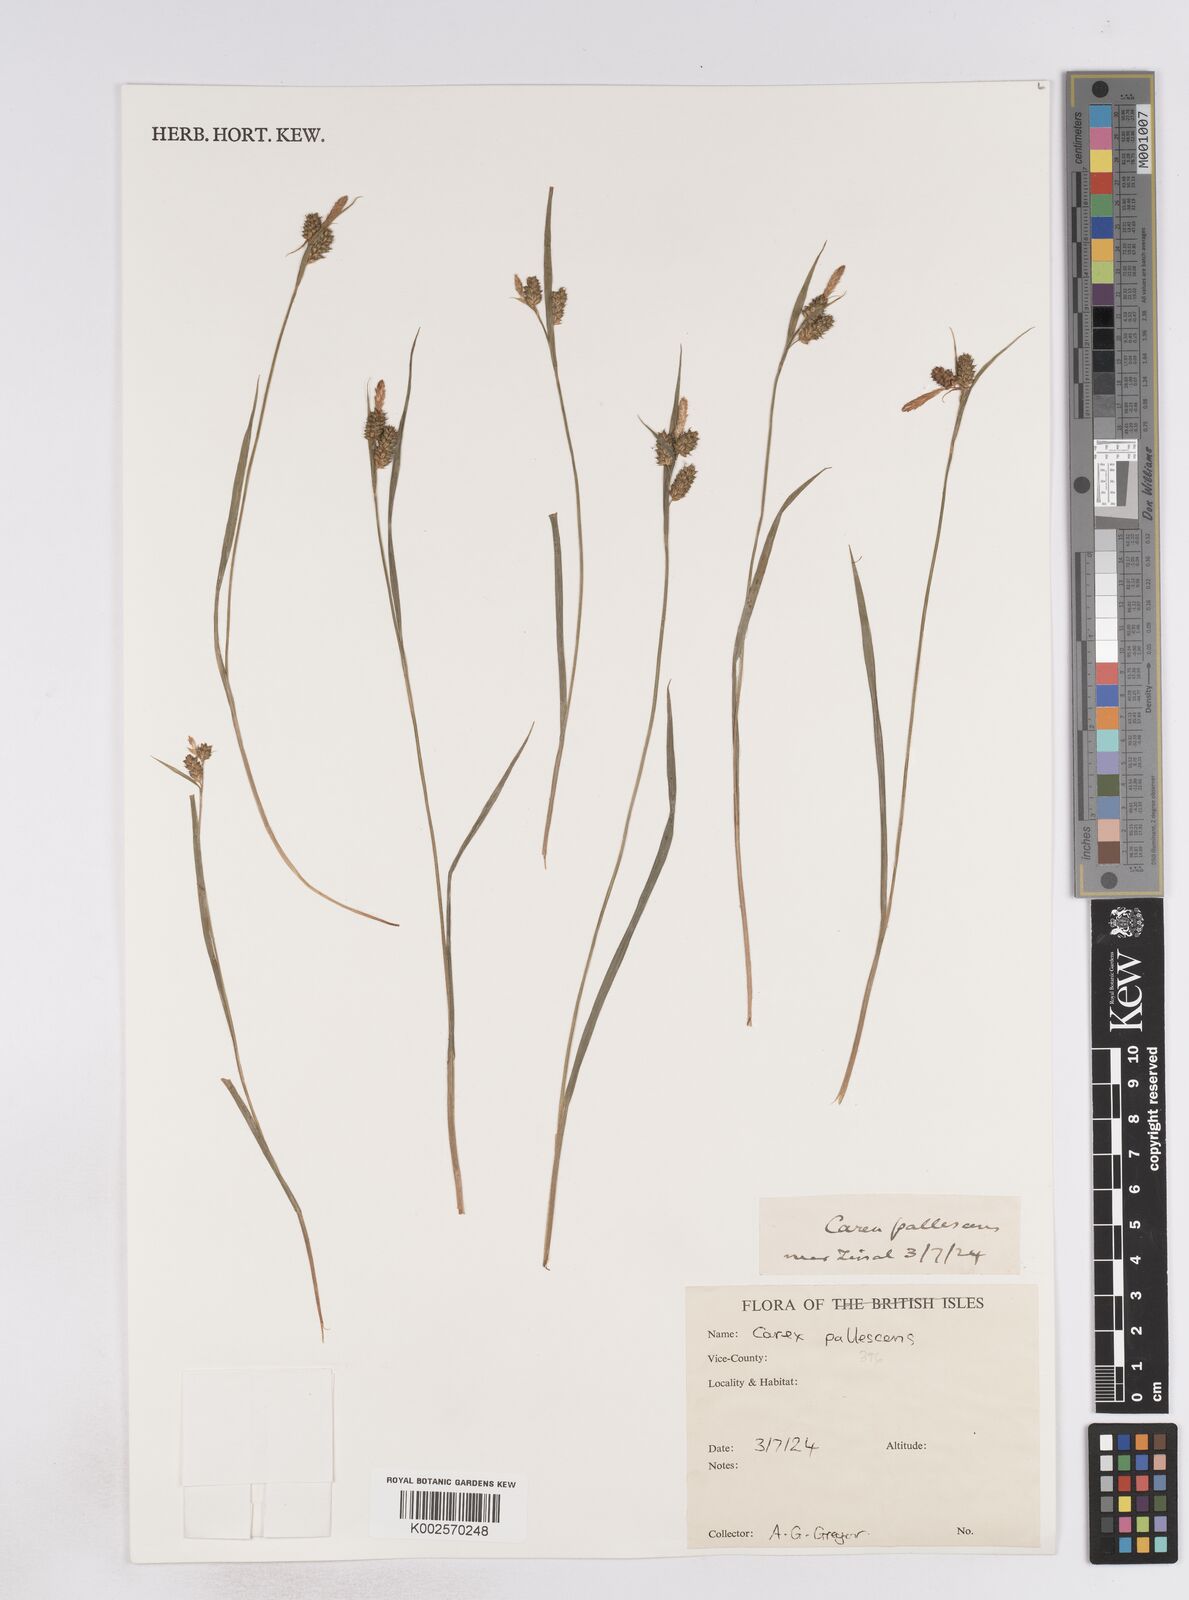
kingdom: Plantae
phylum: Tracheophyta
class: Liliopsida
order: Poales
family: Cyperaceae
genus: Carex
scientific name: Carex pallescens
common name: Pale sedge
